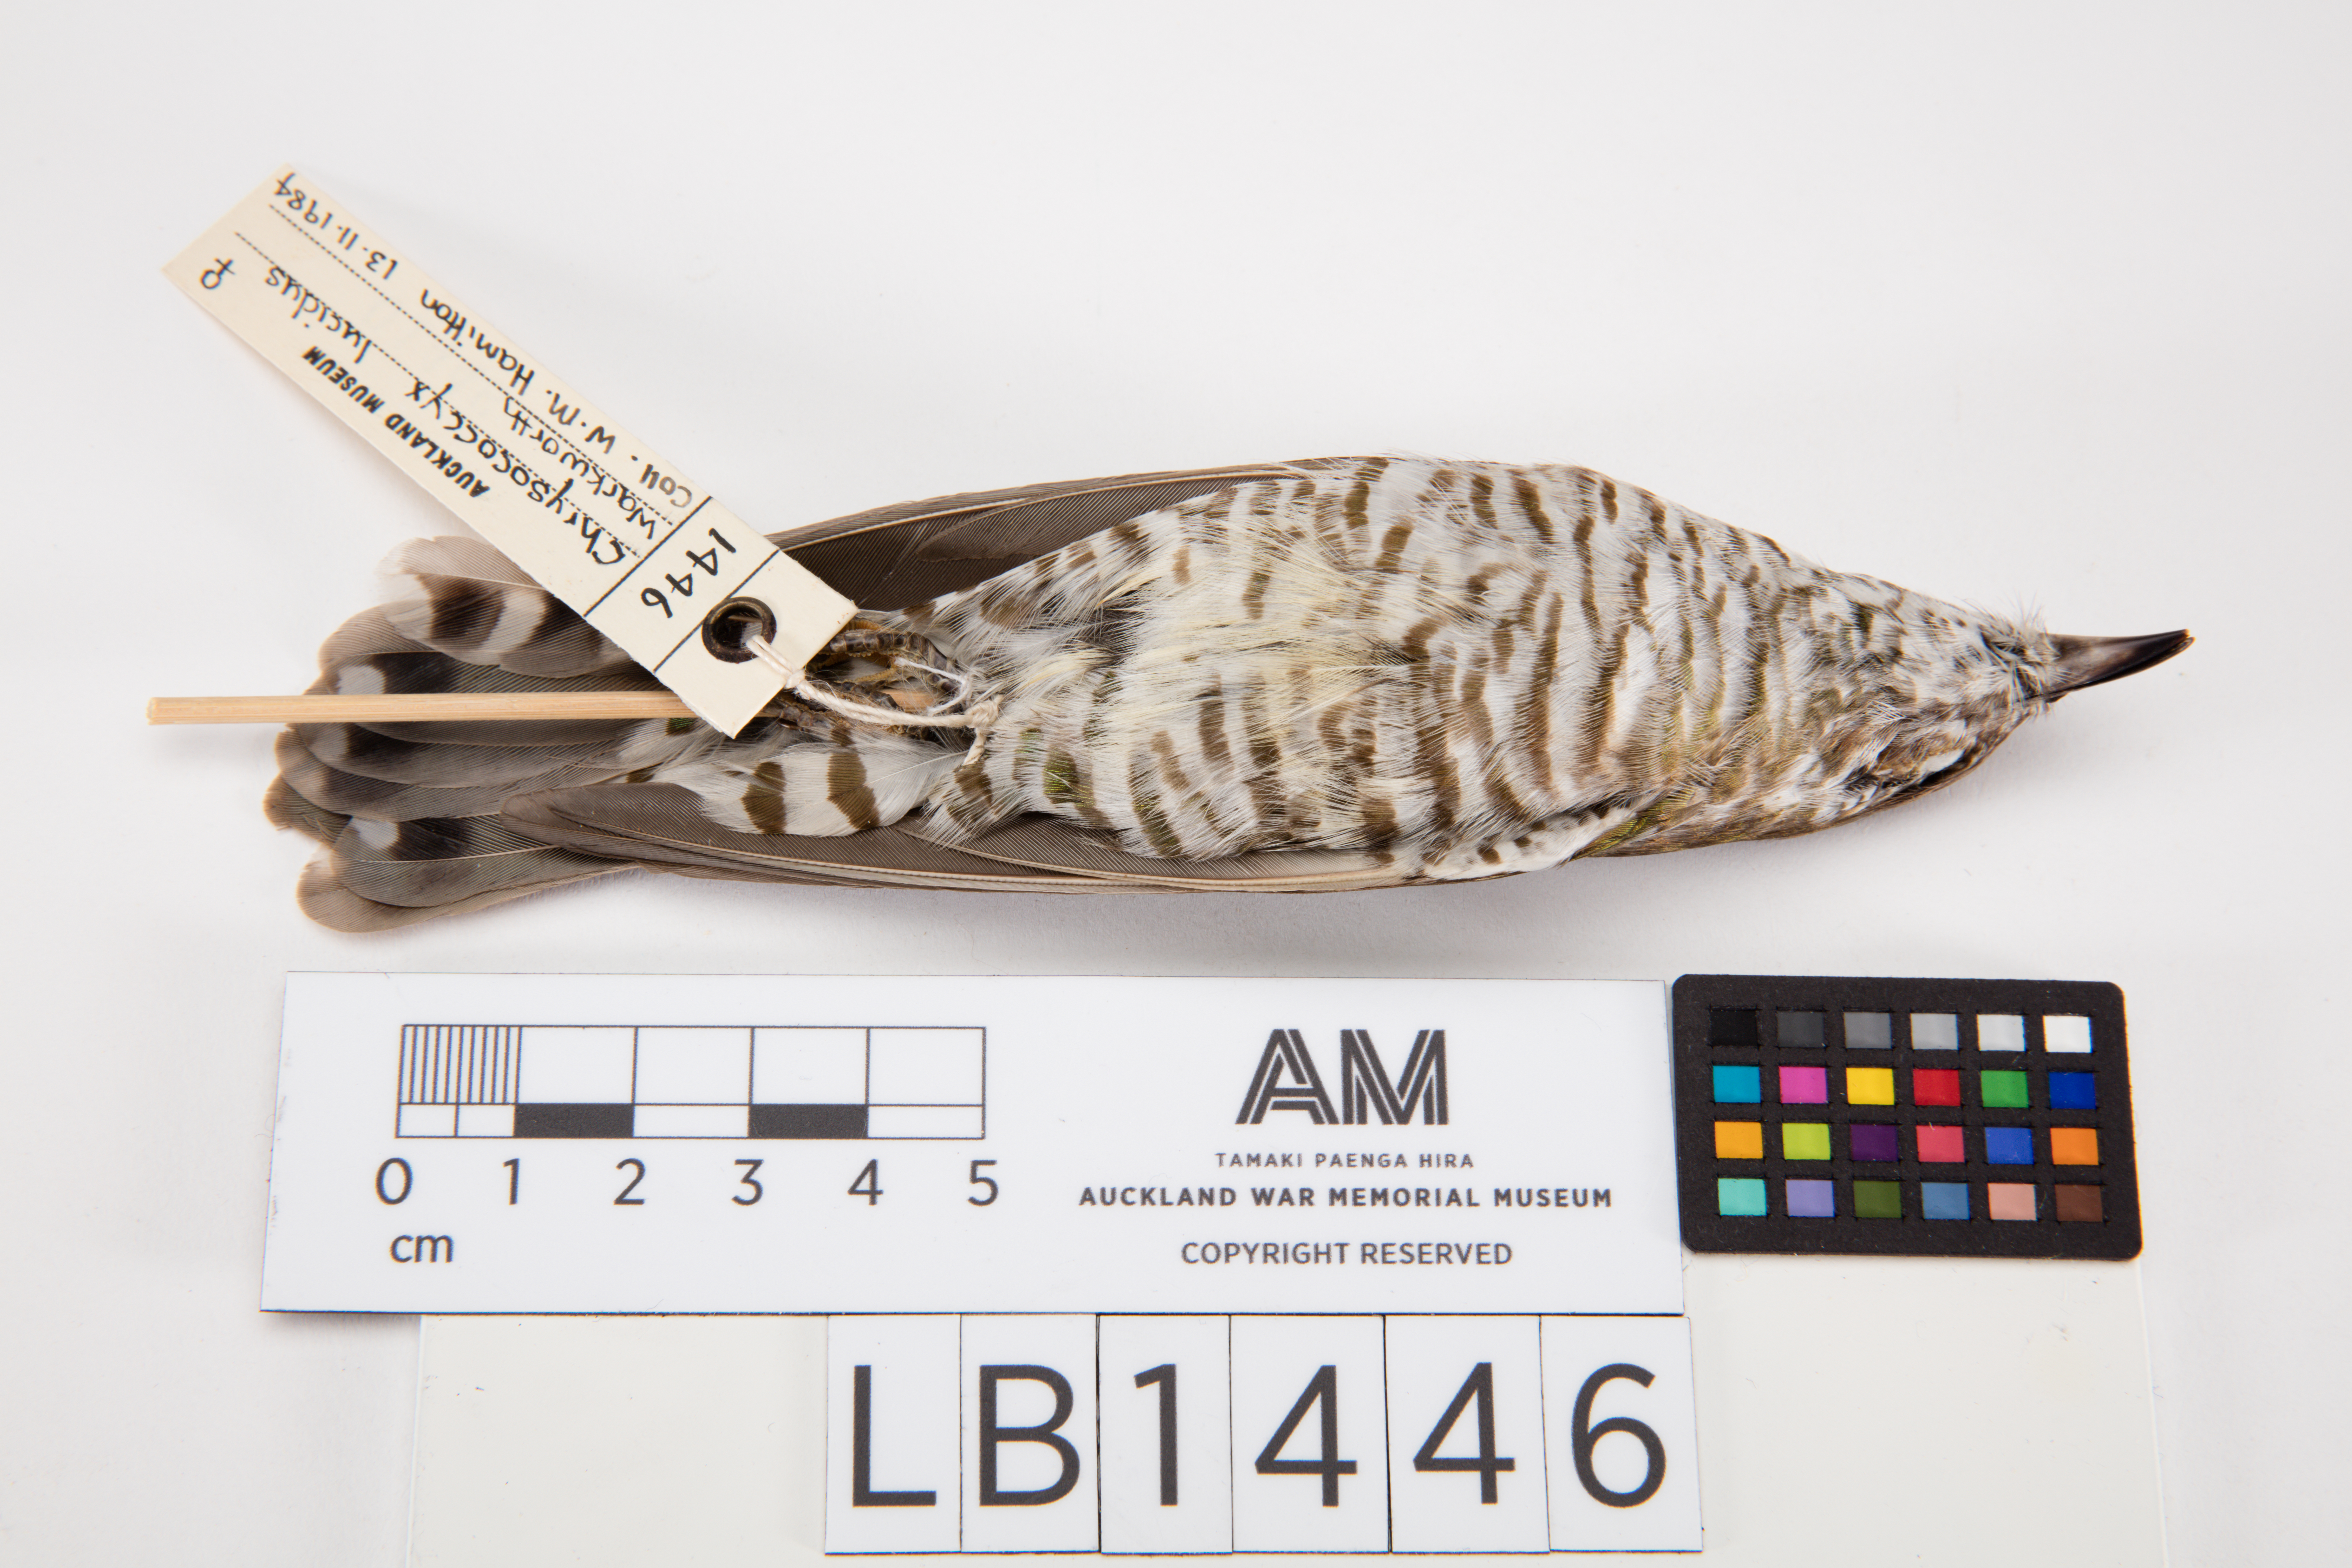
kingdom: Animalia
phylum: Chordata
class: Aves
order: Cuculiformes
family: Cuculidae
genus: Chrysococcyx
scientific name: Chrysococcyx lucidus
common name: Shining bronze cuckoo
